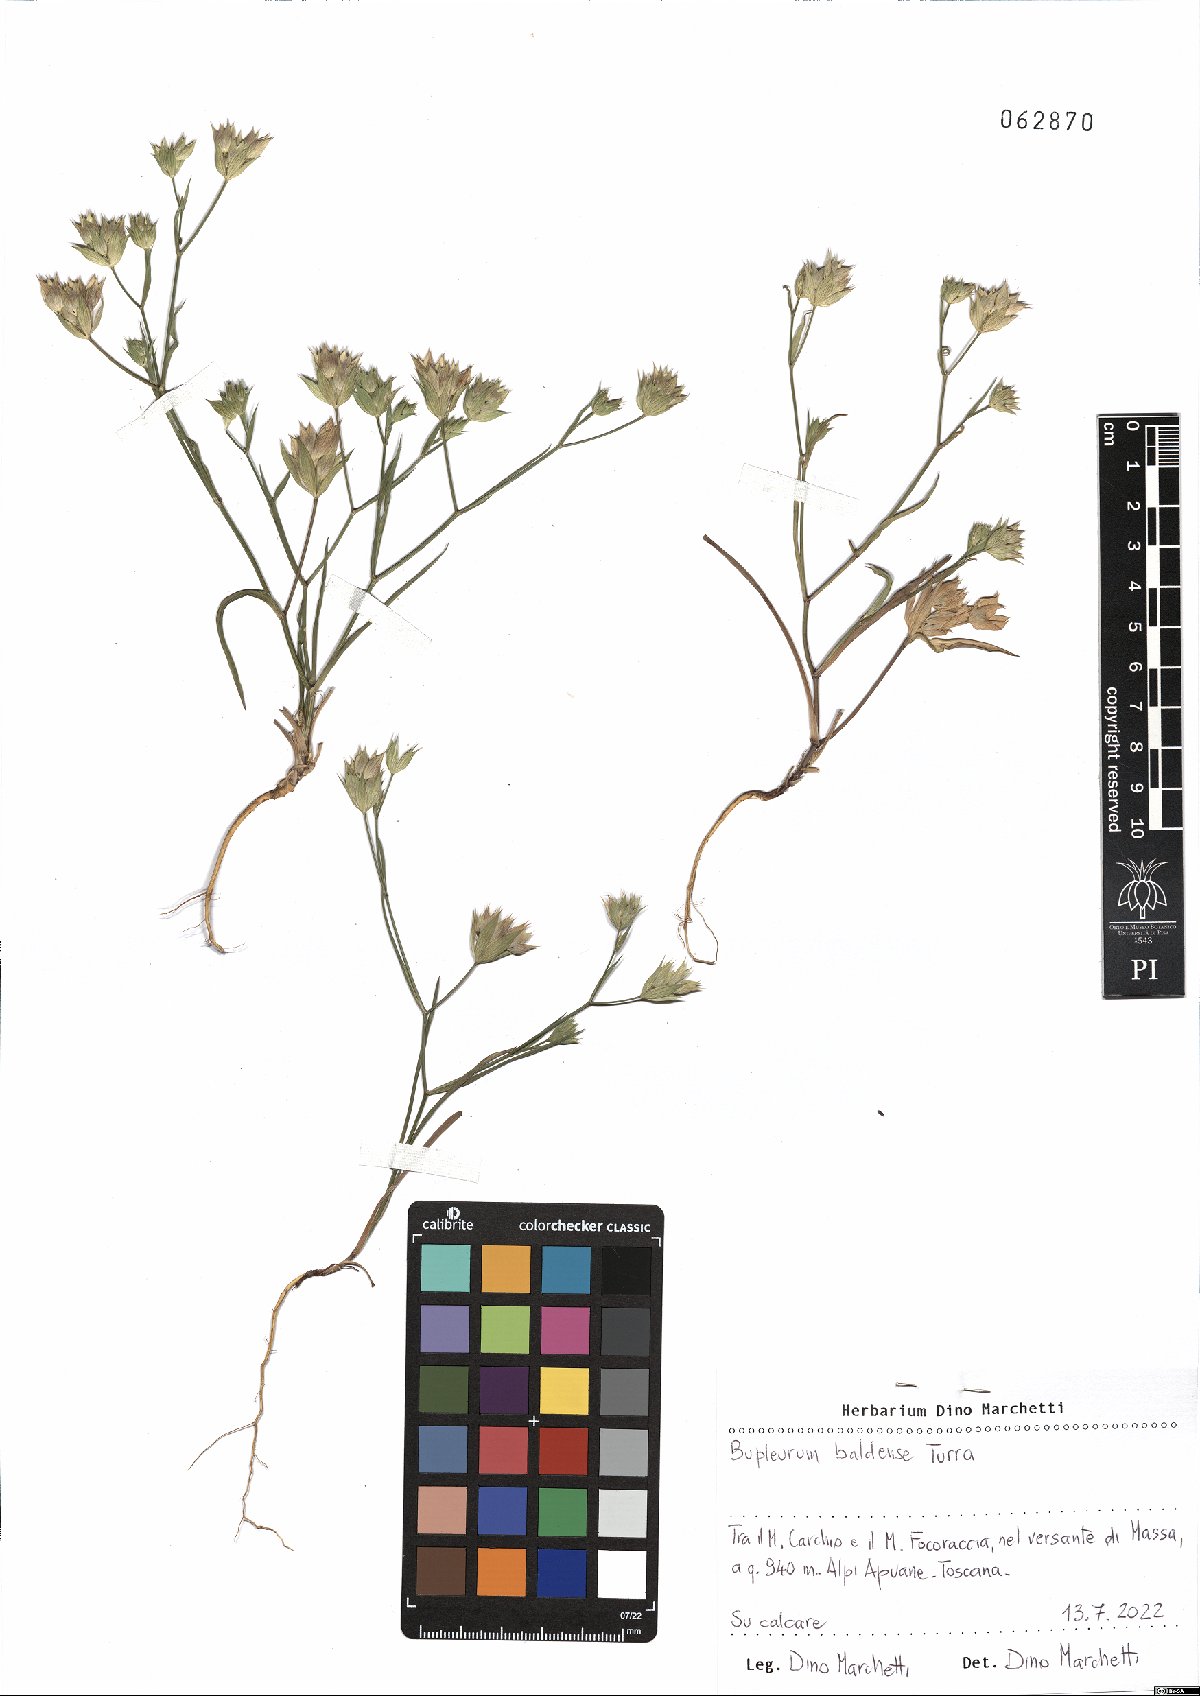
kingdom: Plantae
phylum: Tracheophyta
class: Magnoliopsida
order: Apiales
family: Apiaceae
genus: Bupleurum
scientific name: Bupleurum baldense
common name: Small hare's-ear
